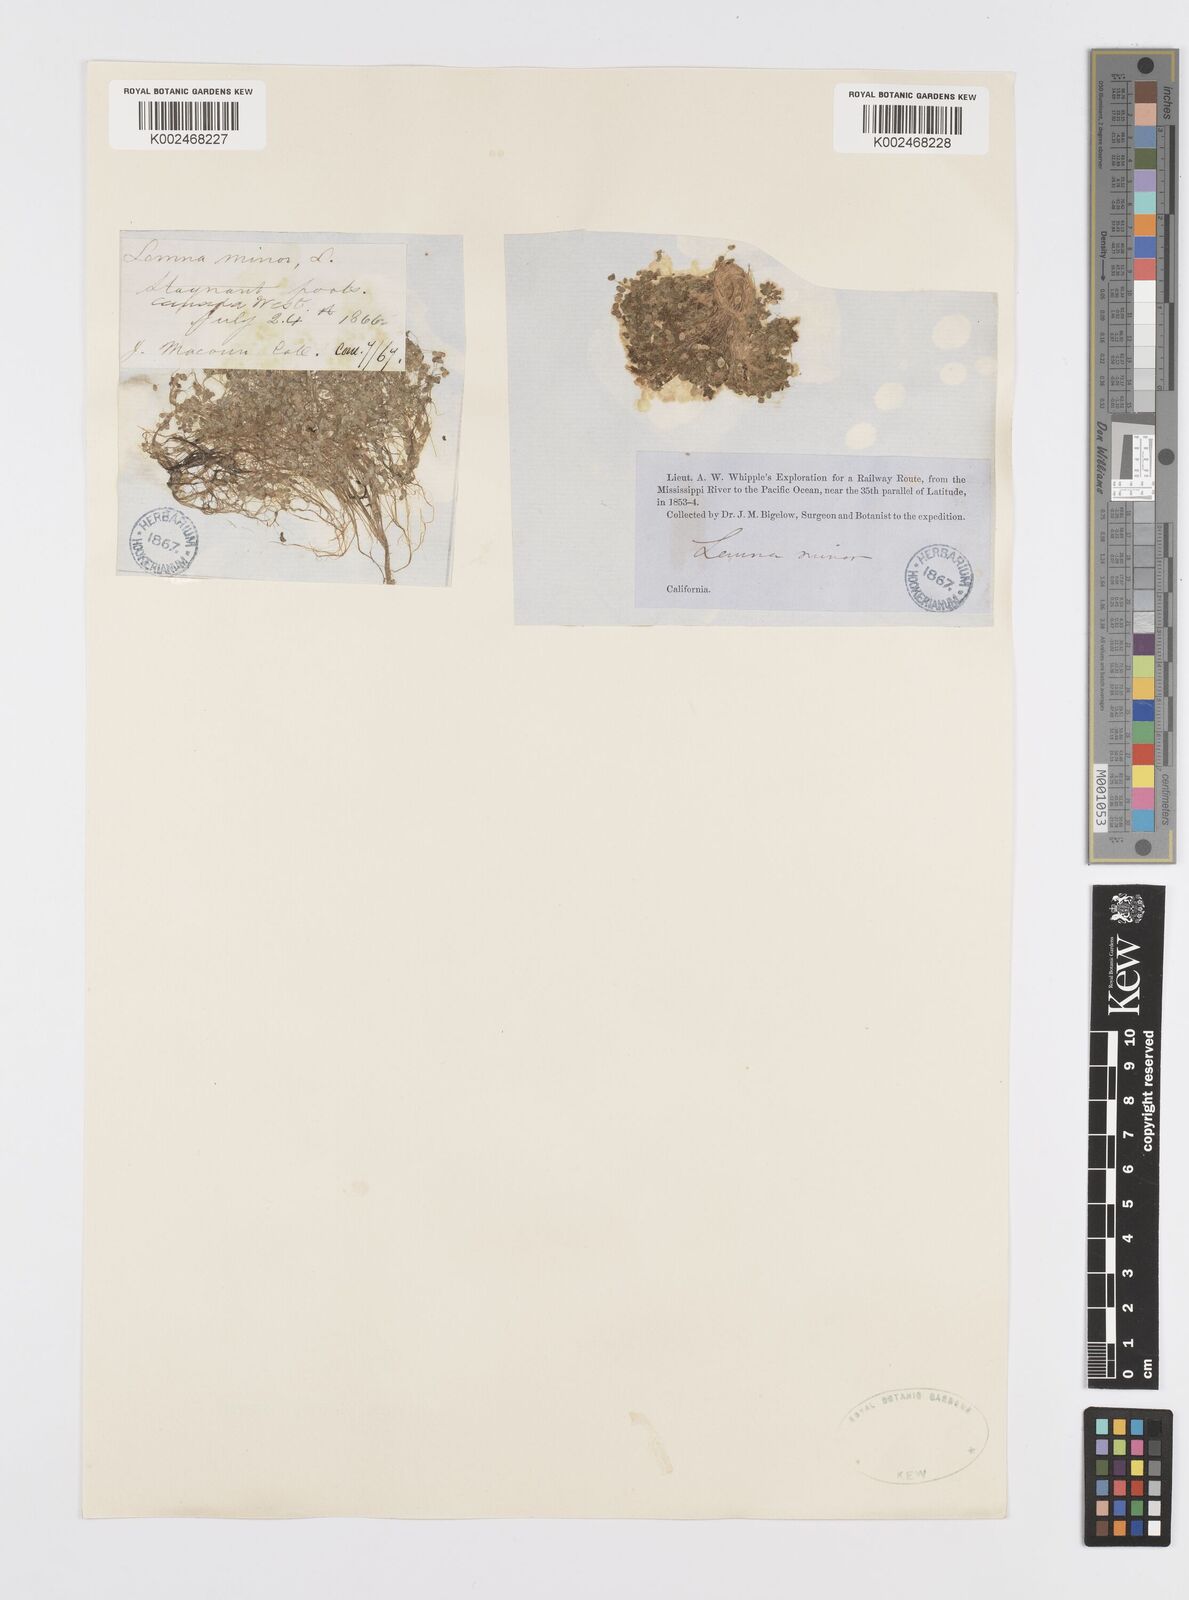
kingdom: Plantae
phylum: Tracheophyta
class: Liliopsida
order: Alismatales
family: Araceae
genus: Lemna
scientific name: Lemna minor
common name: Common duckweed
